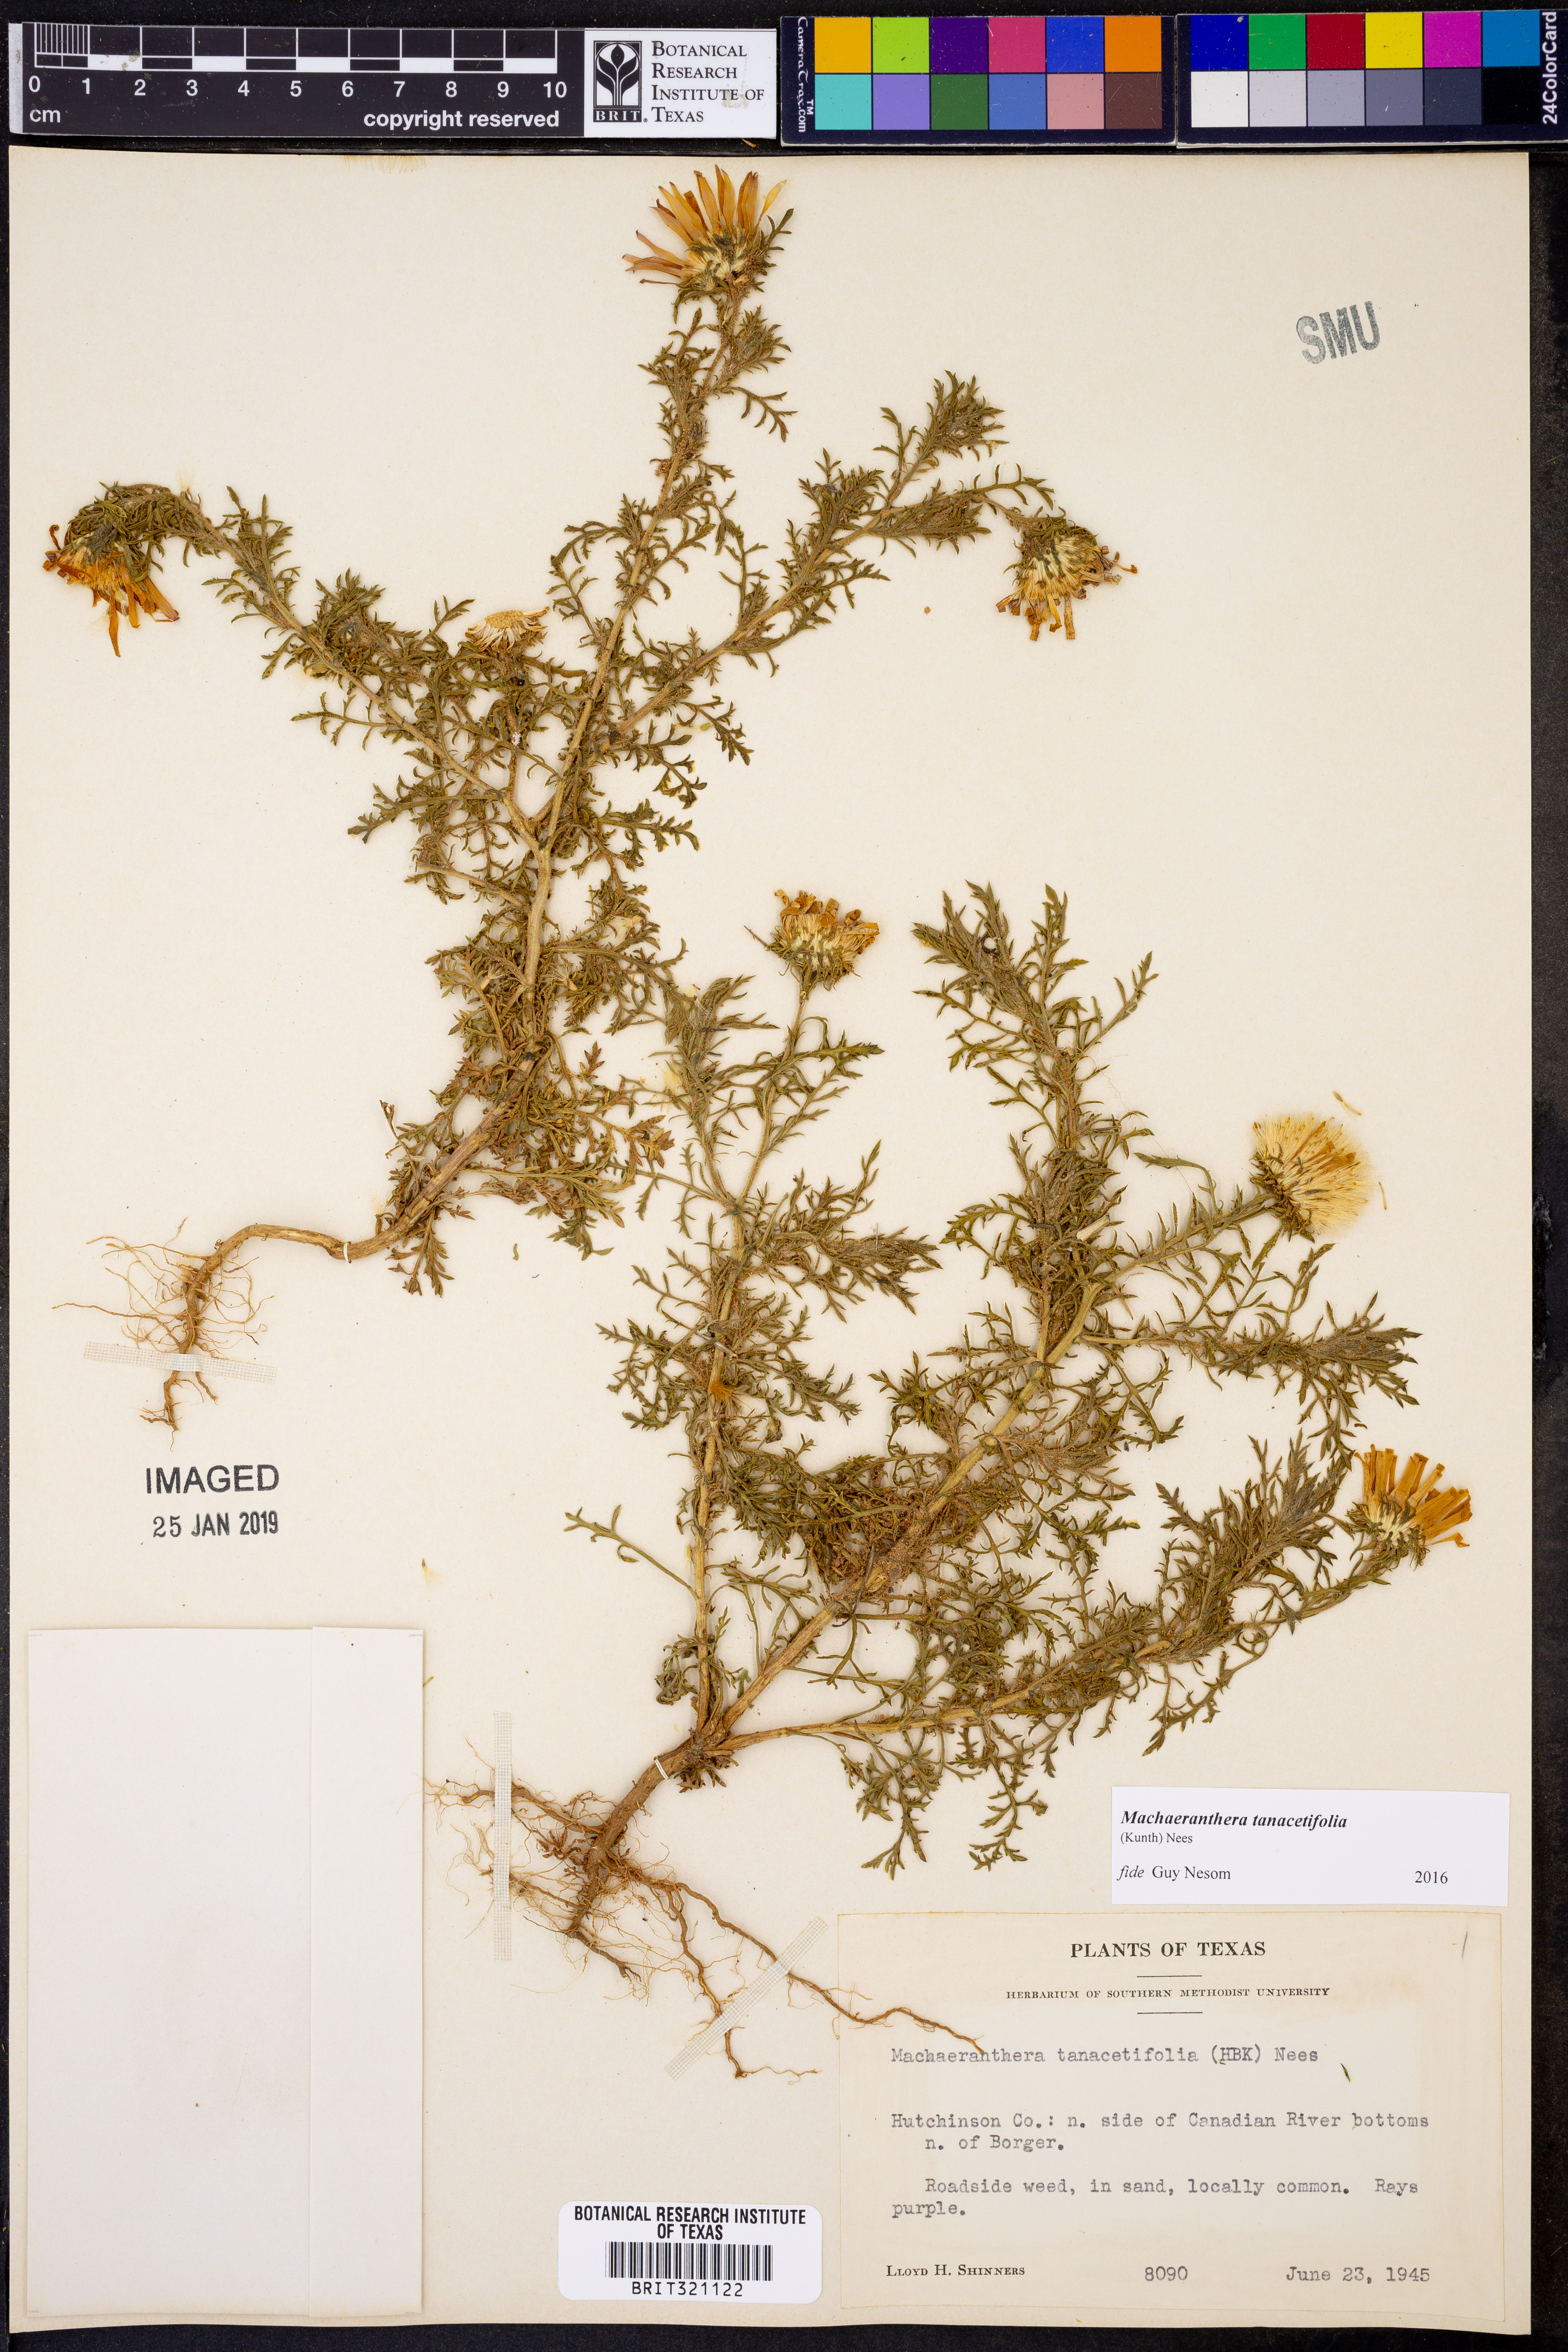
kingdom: Plantae
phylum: Tracheophyta
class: Magnoliopsida
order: Asterales
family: Asteraceae
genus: Machaeranthera
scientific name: Machaeranthera tanacetifolia
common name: Tansy-aster
